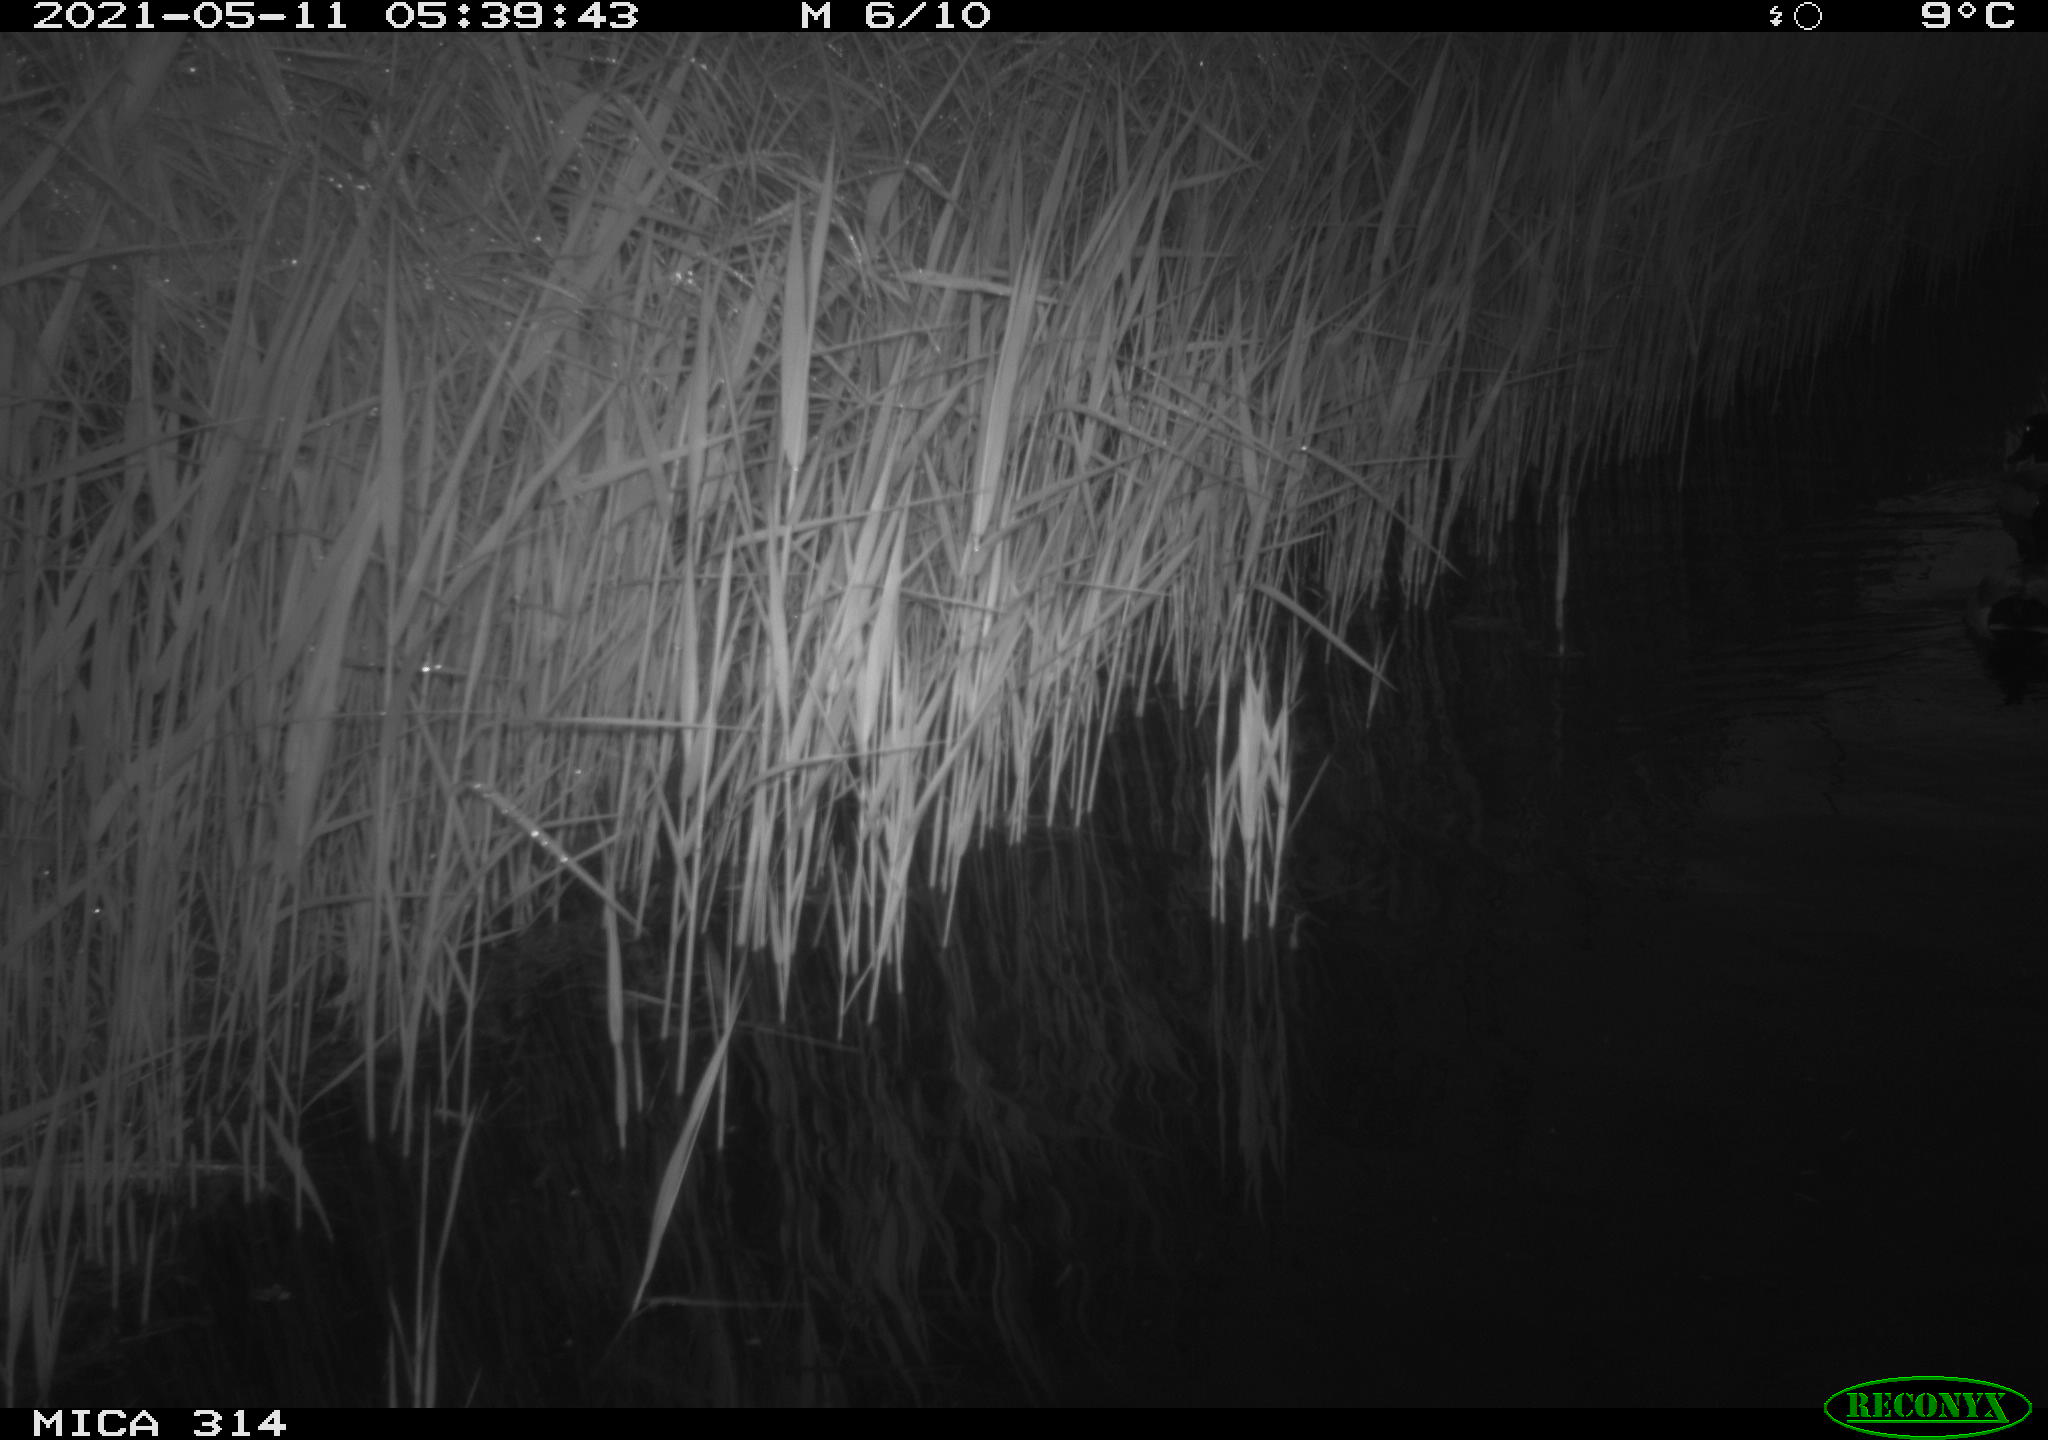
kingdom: Animalia
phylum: Chordata
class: Aves
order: Anseriformes
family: Anatidae
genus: Anas
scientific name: Anas platyrhynchos
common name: Mallard
